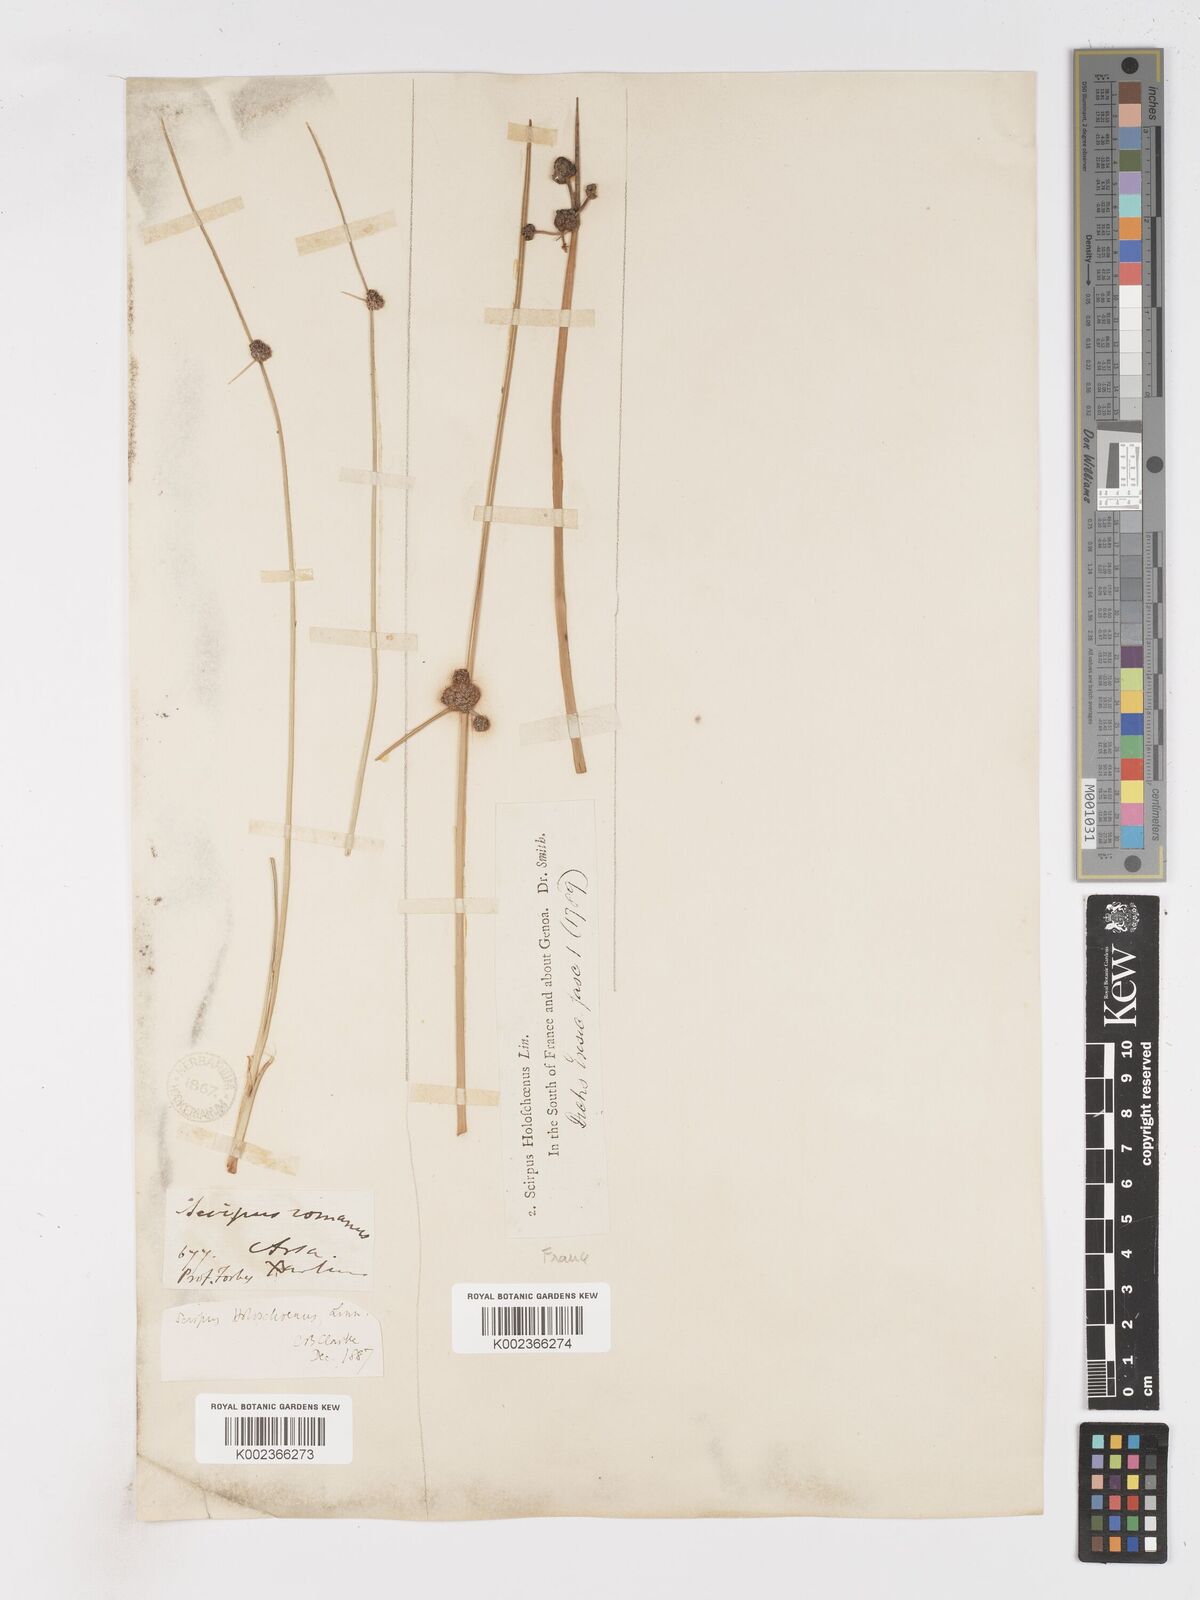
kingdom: Plantae
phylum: Tracheophyta
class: Liliopsida
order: Poales
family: Cyperaceae
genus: Scirpoides
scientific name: Scirpoides holoschoenus
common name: Round-headed club-rush
